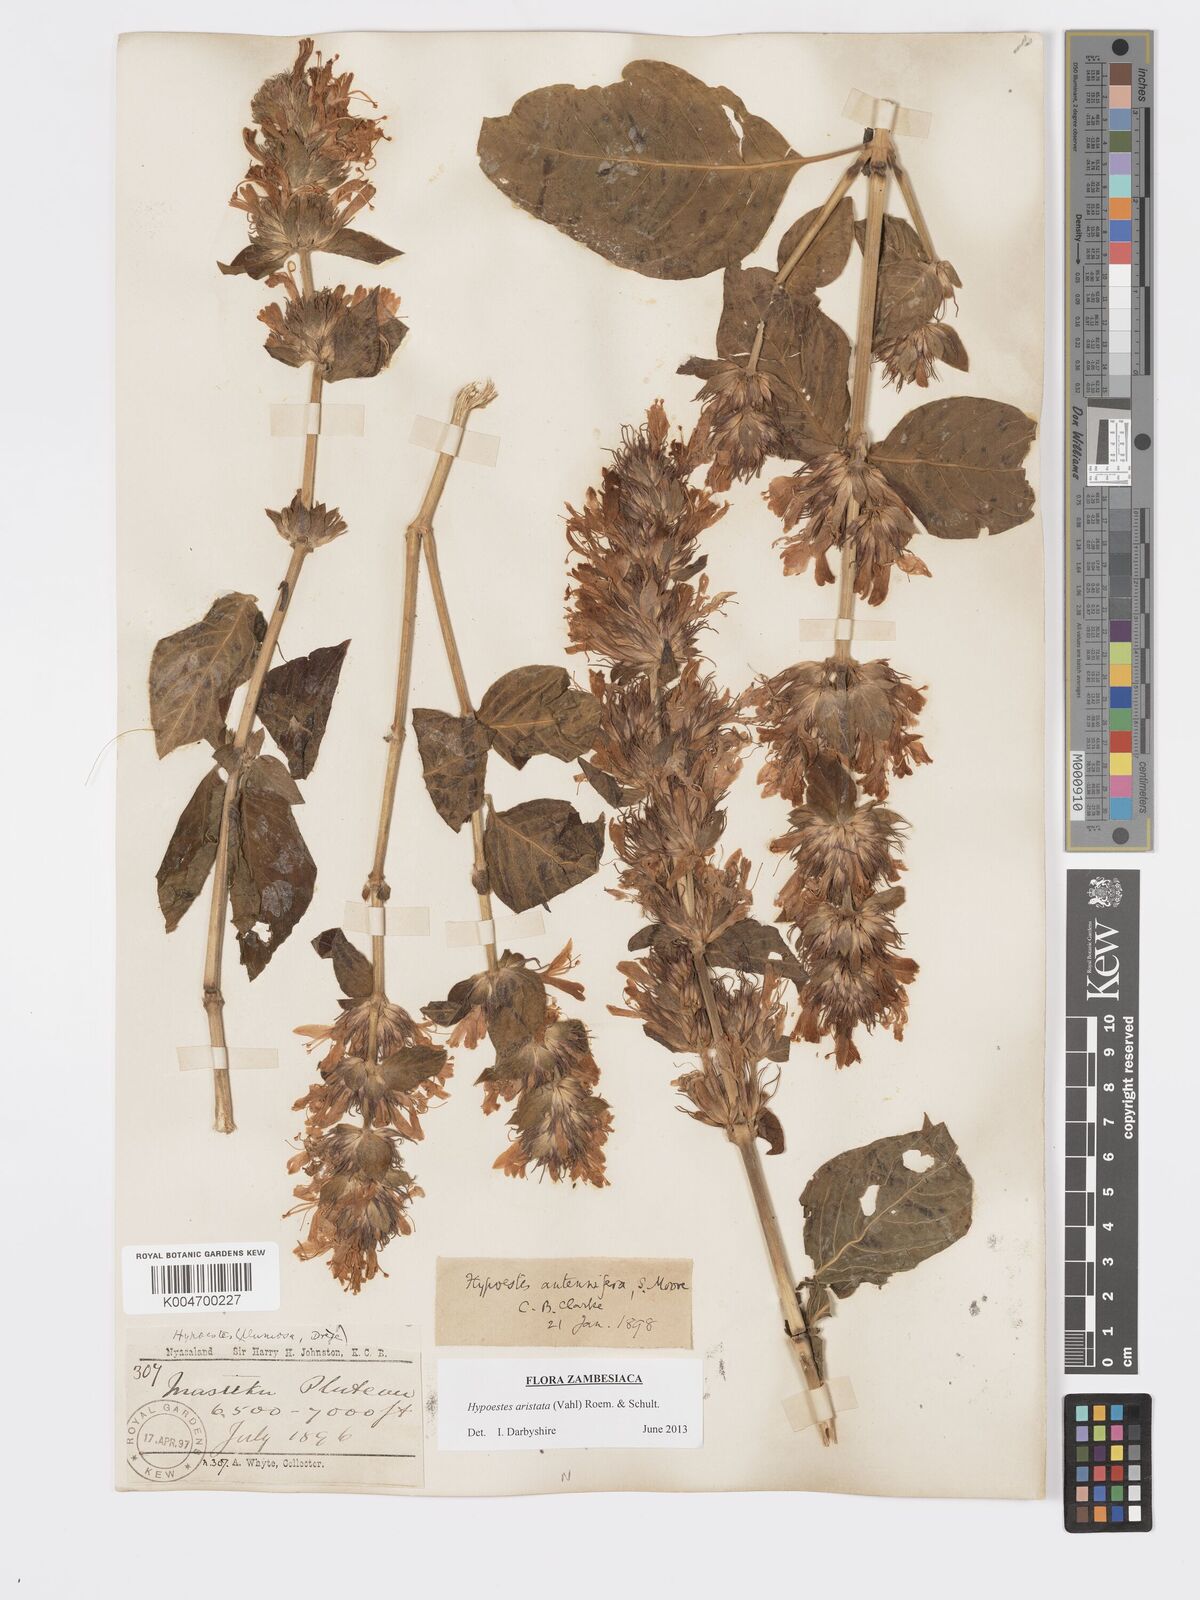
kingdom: Plantae
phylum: Tracheophyta
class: Magnoliopsida
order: Lamiales
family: Acanthaceae
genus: Hypoestes
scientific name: Hypoestes aristata
